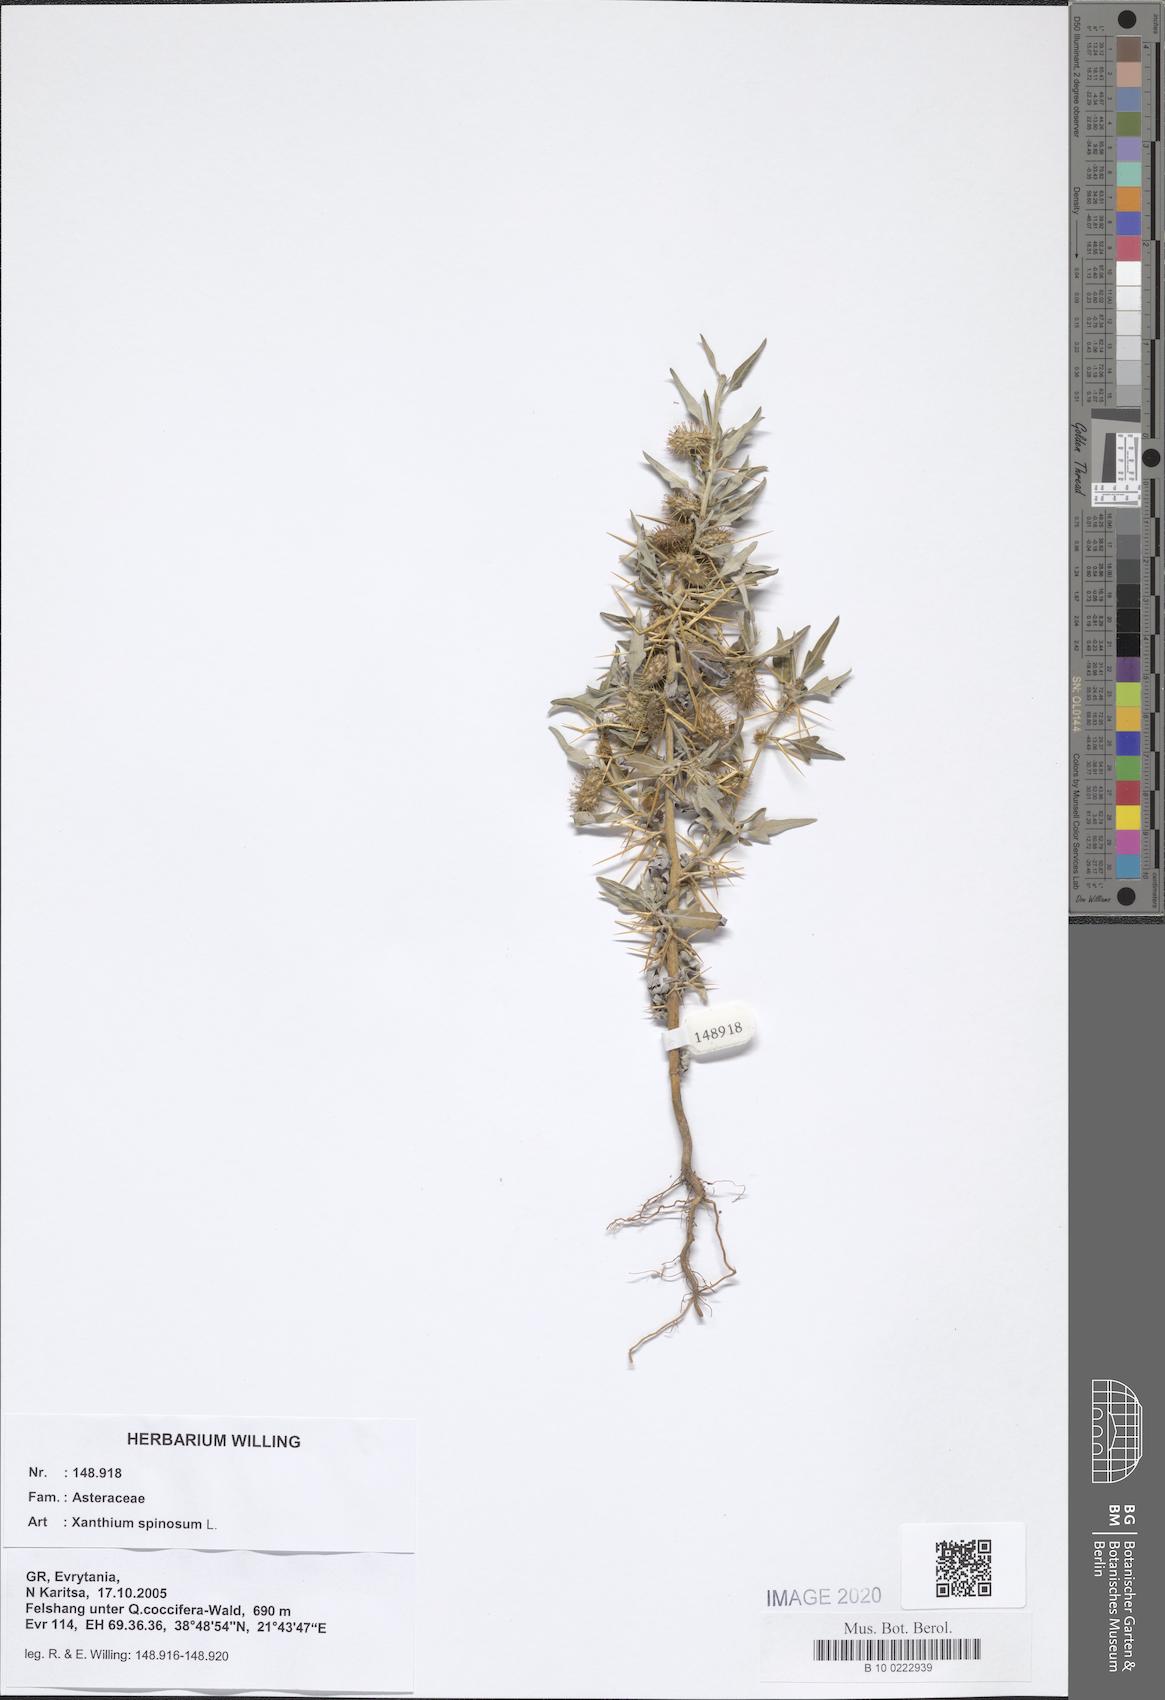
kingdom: Plantae
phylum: Tracheophyta
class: Magnoliopsida
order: Asterales
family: Asteraceae
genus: Xanthium
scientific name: Xanthium spinosum
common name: Spiny cocklebur
